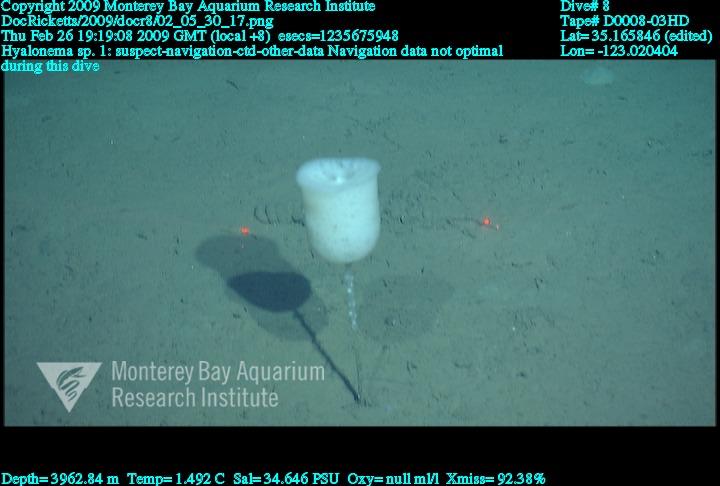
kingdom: Animalia
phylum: Porifera
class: Hexactinellida
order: Amphidiscosida
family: Hyalonematidae
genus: Hyalonema
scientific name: Hyalonema
